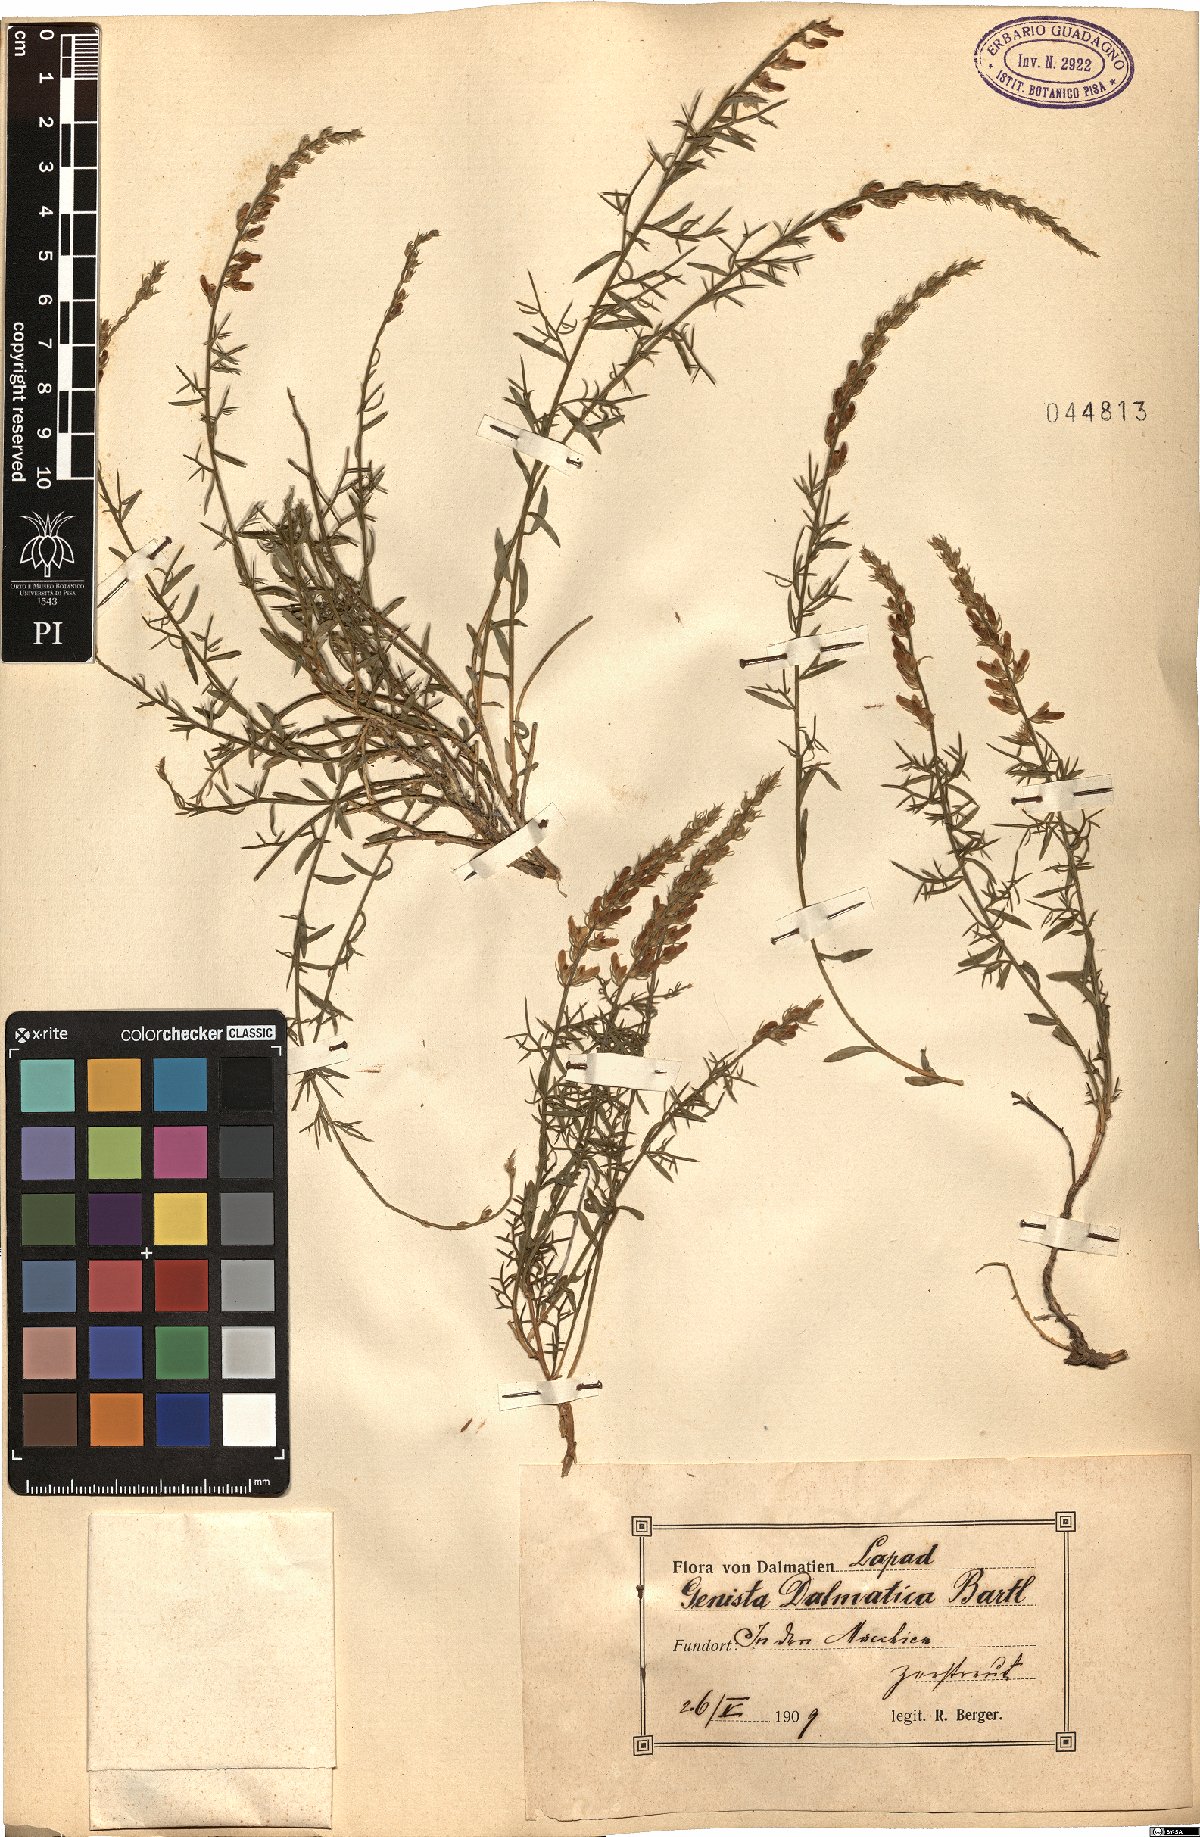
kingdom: Plantae
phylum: Tracheophyta
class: Magnoliopsida
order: Fabales
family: Fabaceae
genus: Genista
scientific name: Genista michelii
